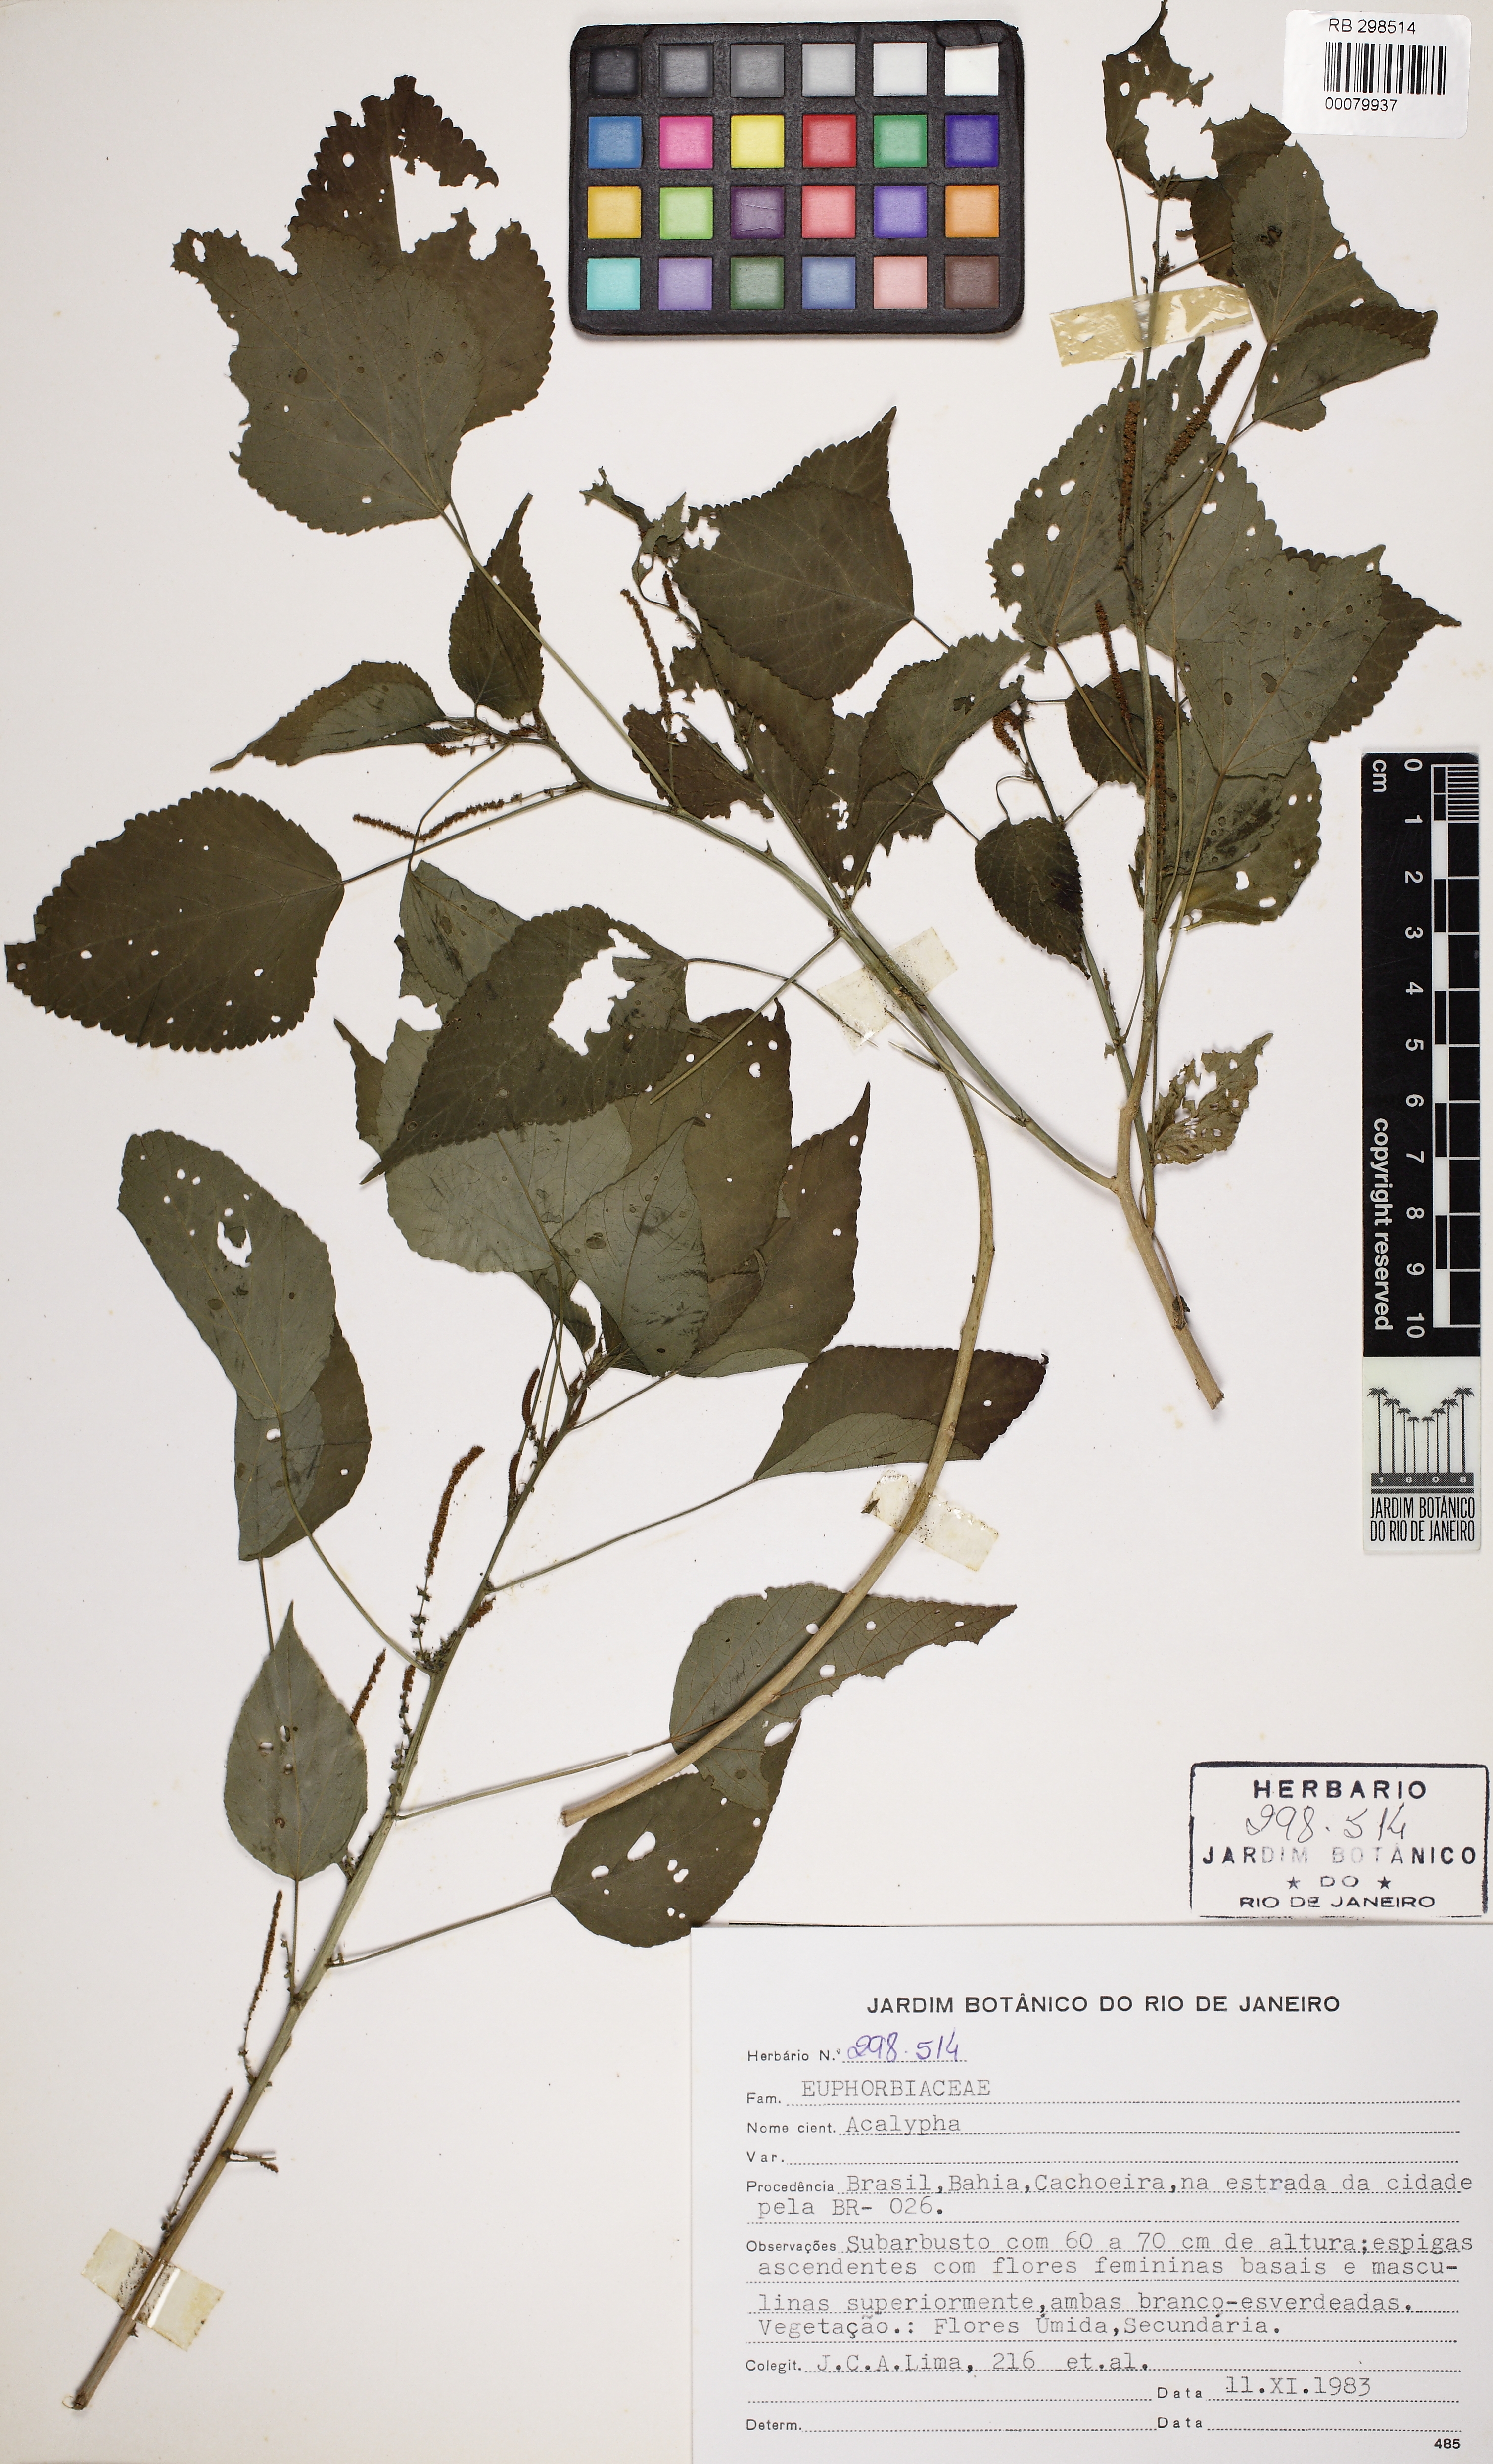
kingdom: Plantae
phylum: Tracheophyta
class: Magnoliopsida
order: Malpighiales
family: Euphorbiaceae
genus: Acalypha
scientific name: Acalypha brasiliensis
